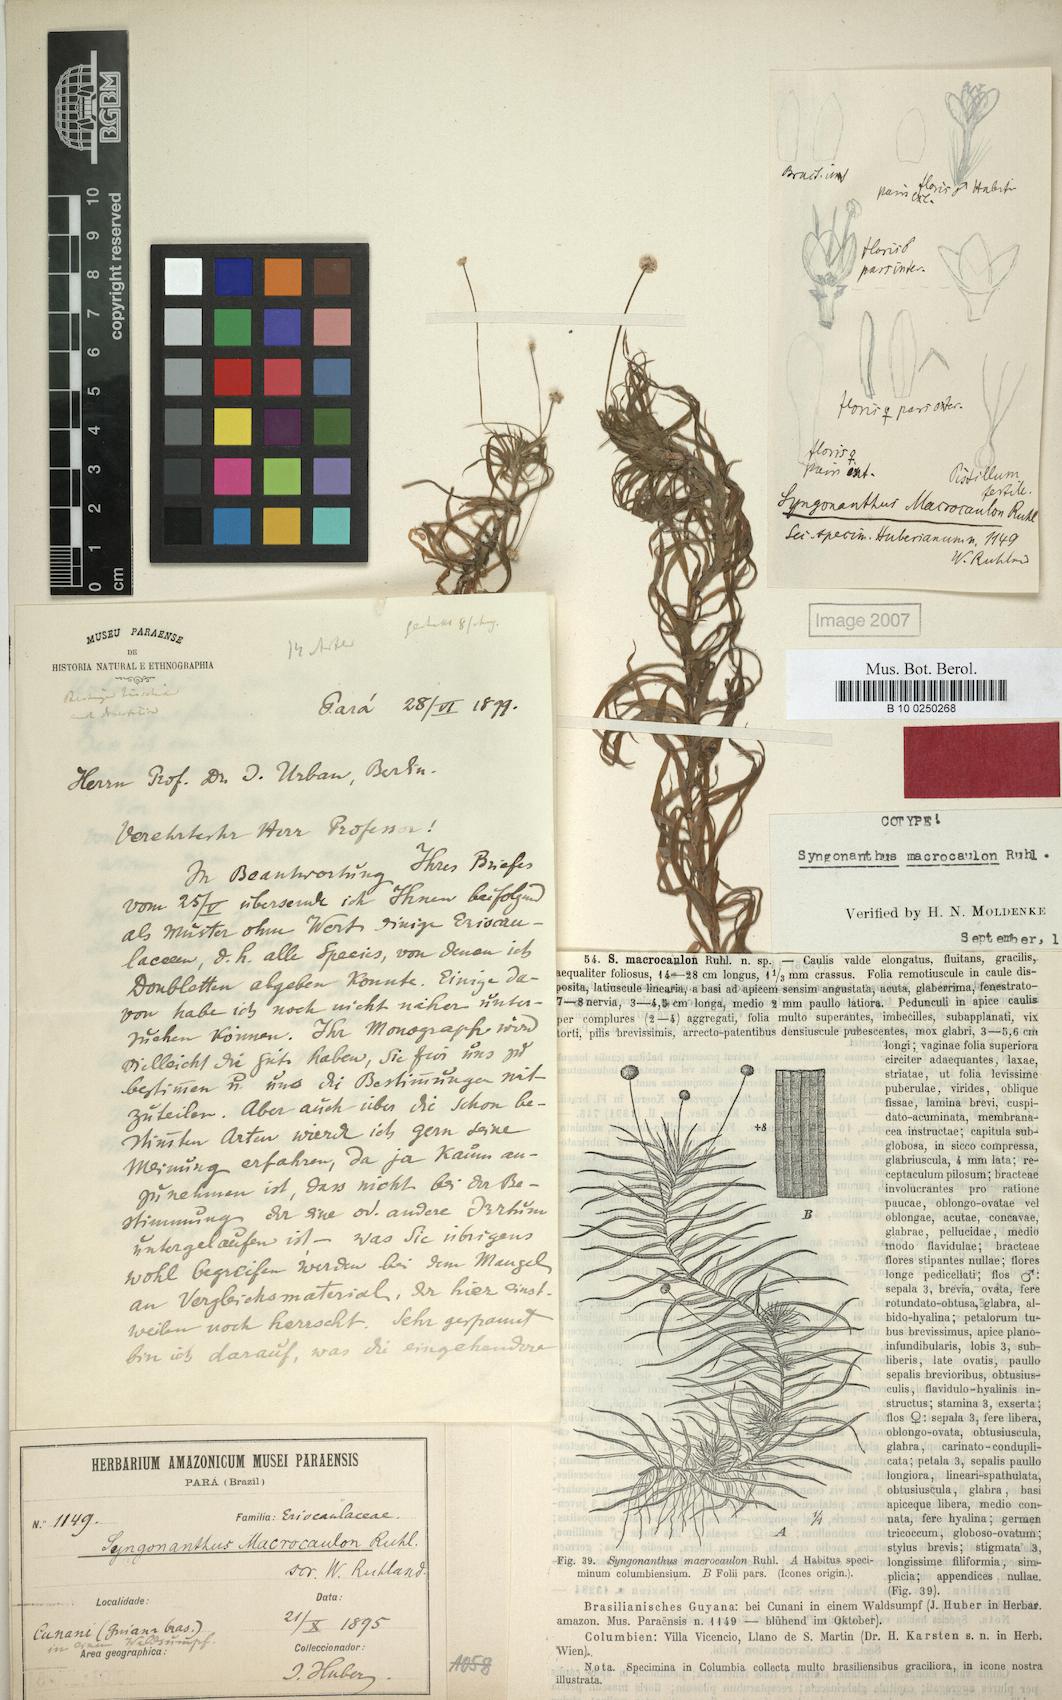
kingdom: Plantae
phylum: Tracheophyta
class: Liliopsida
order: Poales
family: Eriocaulaceae
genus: Syngonanthus
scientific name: Syngonanthus anomalus
